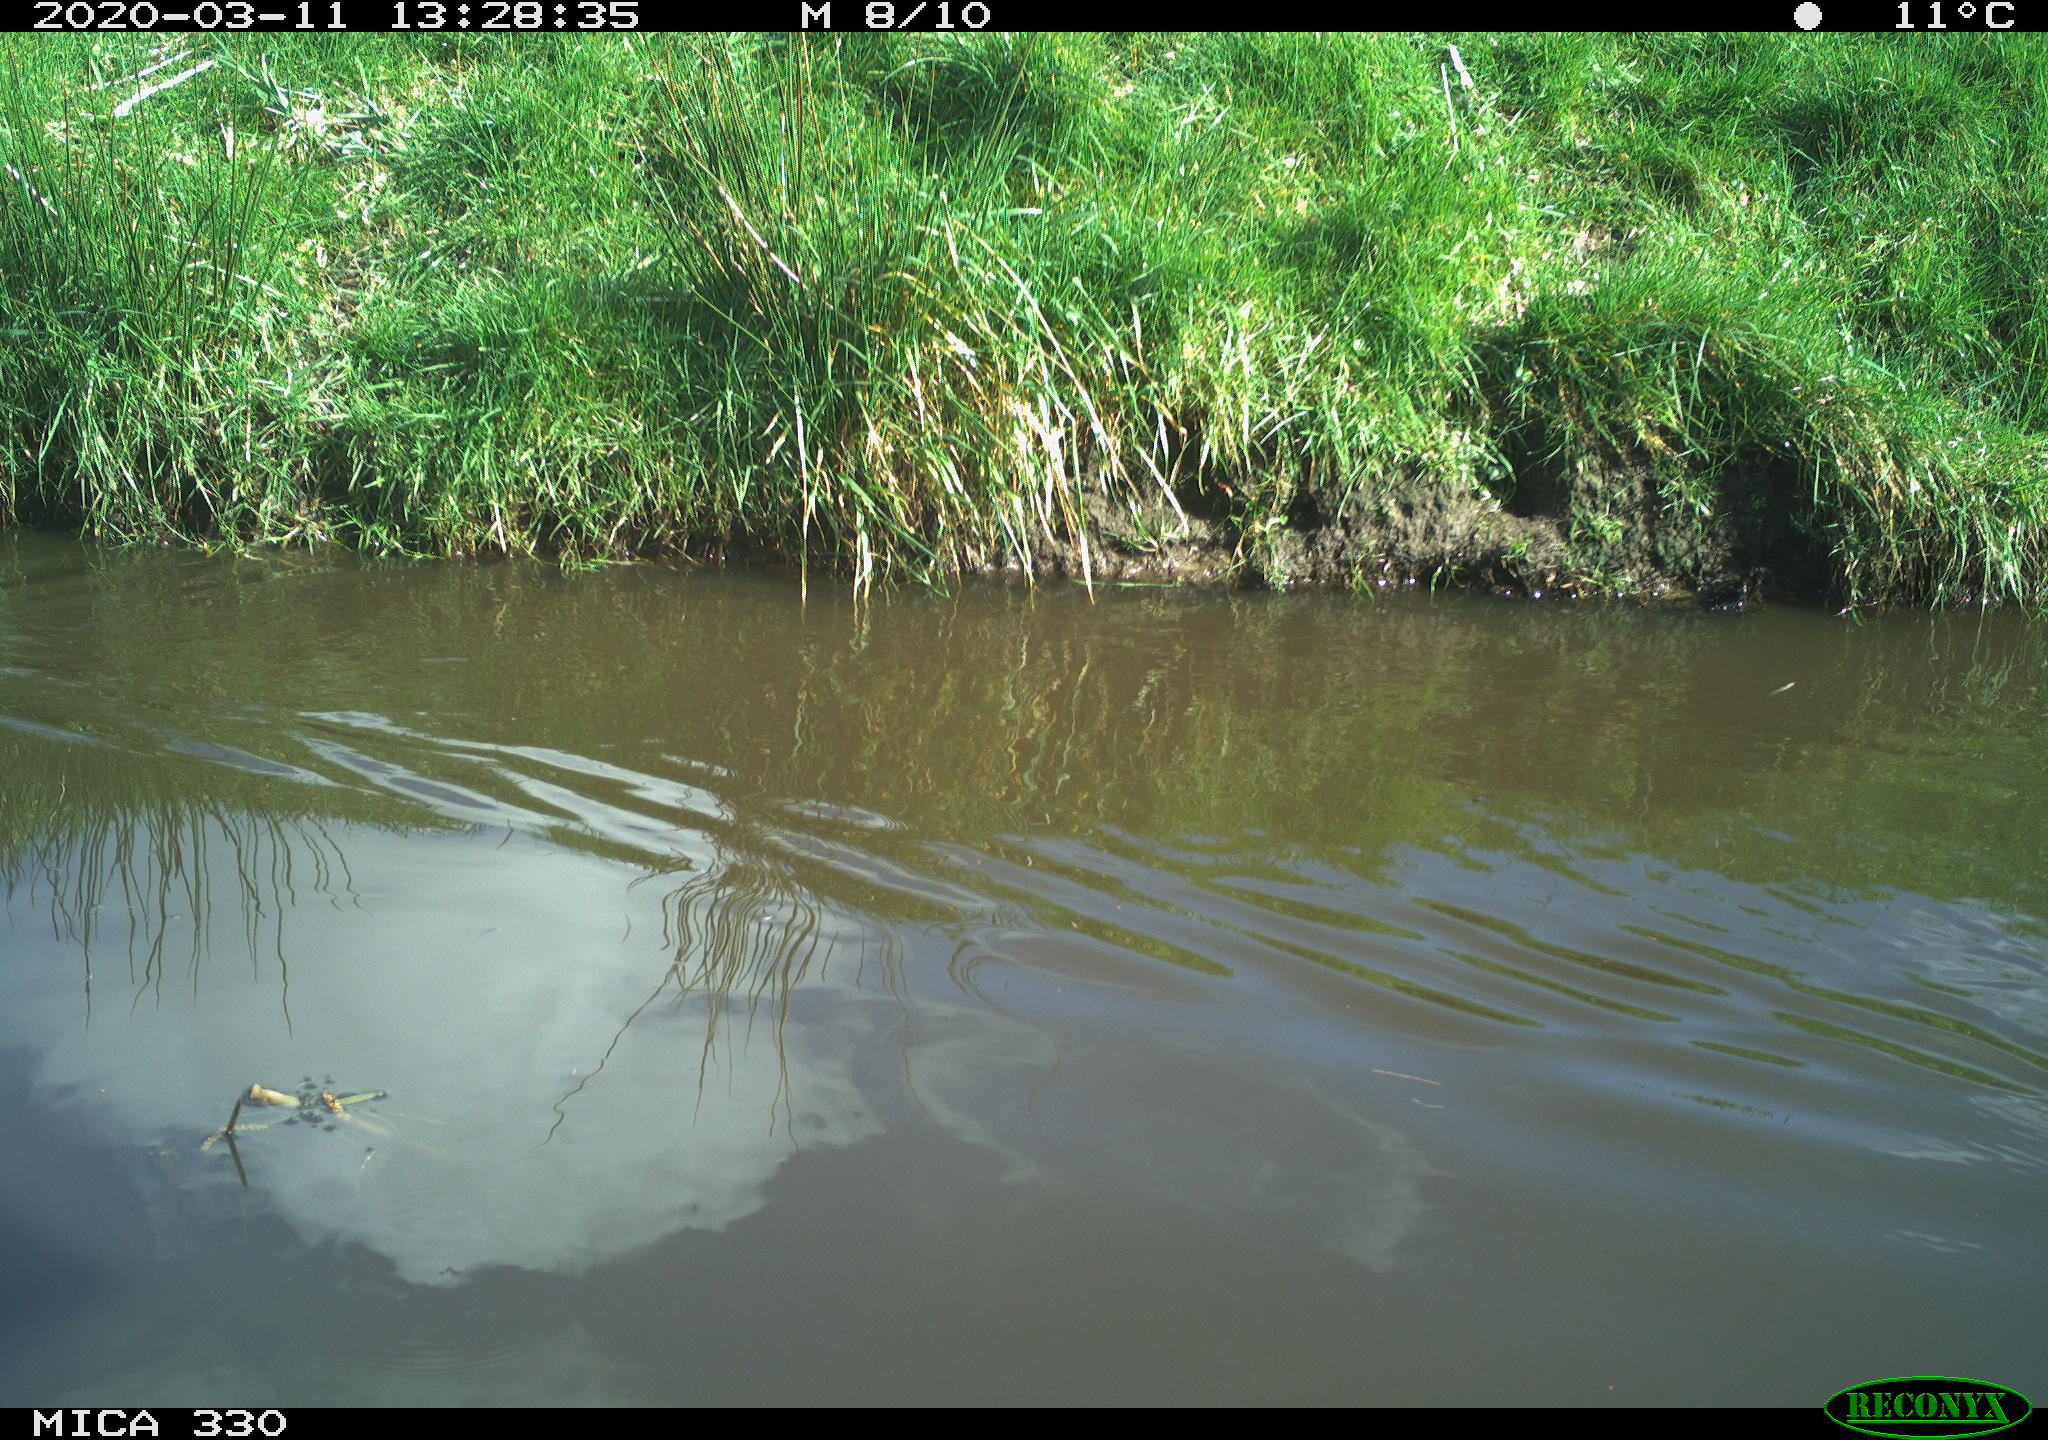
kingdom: Animalia
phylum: Chordata
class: Aves
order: Anseriformes
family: Anatidae
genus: Anas
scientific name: Anas platyrhynchos
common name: Mallard
